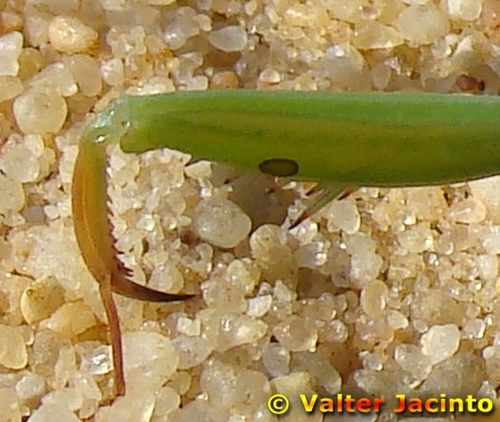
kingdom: Animalia
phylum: Arthropoda
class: Insecta
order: Mantodea
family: Mantidae
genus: Mantis
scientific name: Mantis religiosa
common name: Praying mantis
